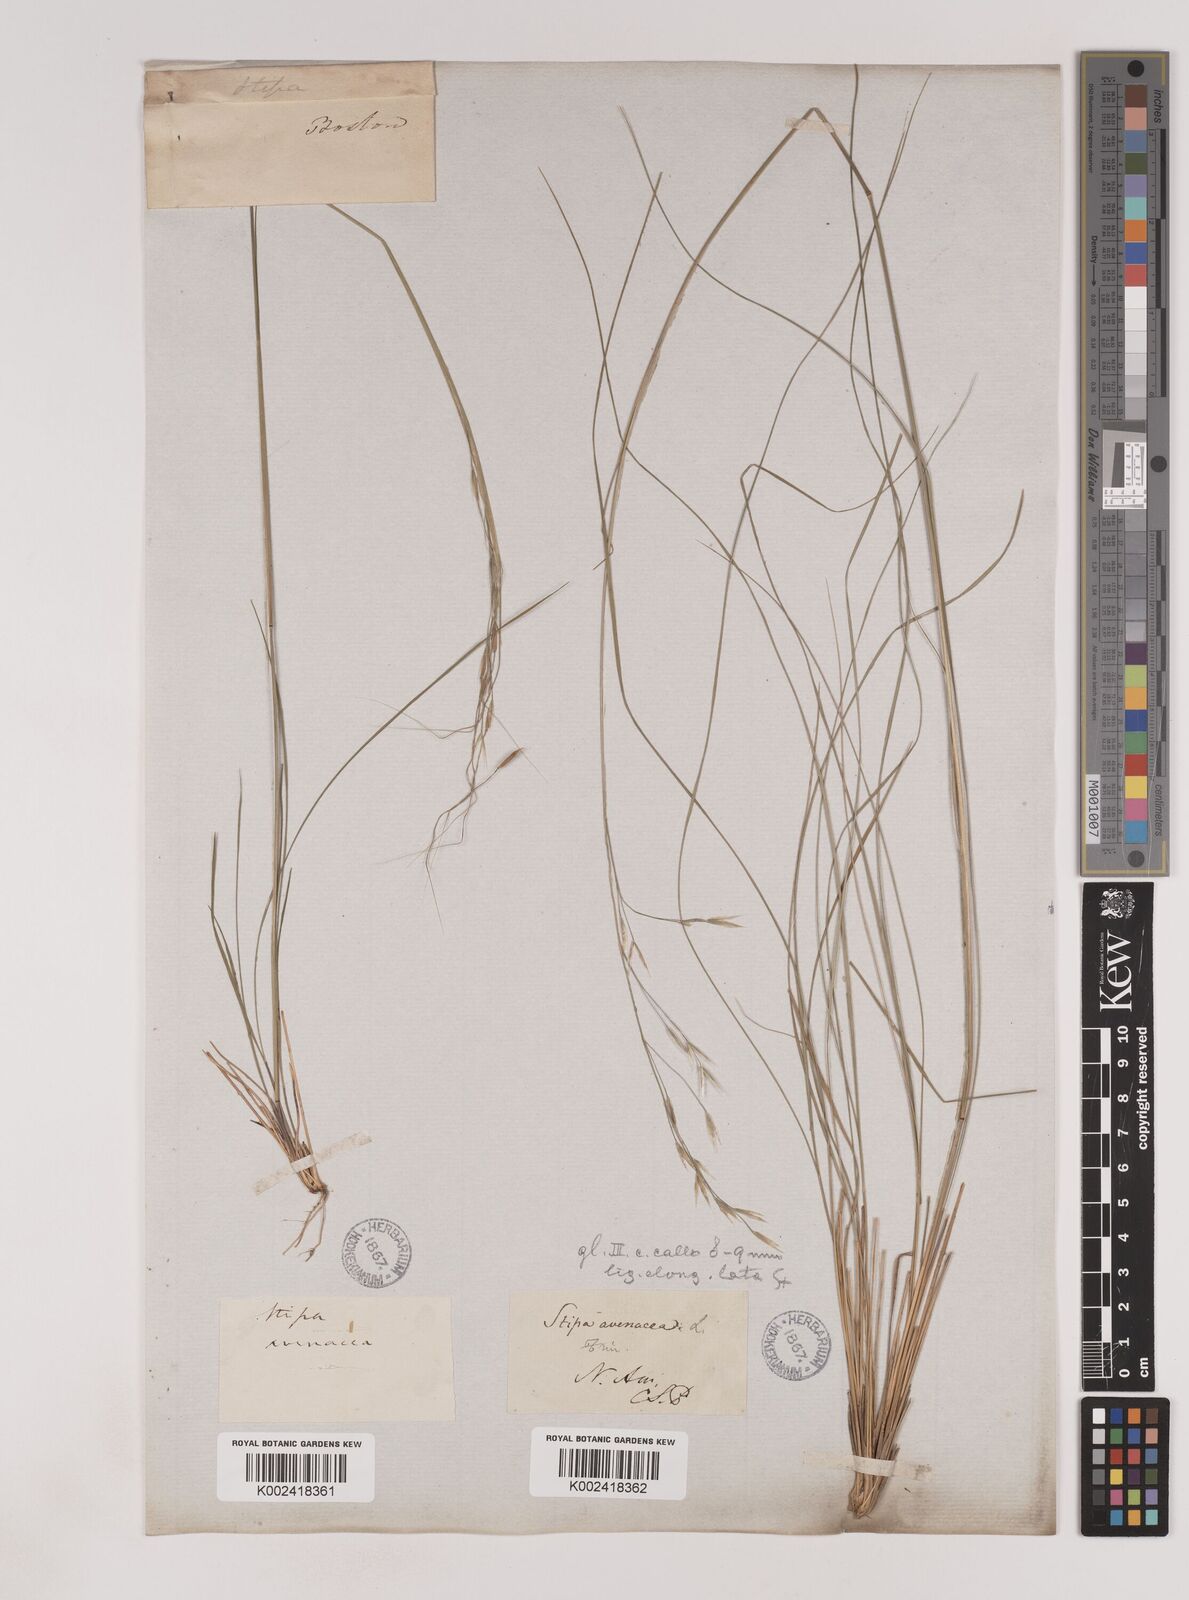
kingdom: Plantae
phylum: Tracheophyta
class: Liliopsida
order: Poales
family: Poaceae
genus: Piptochaetium
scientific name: Piptochaetium avenaceum
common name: Black bunchgrass
